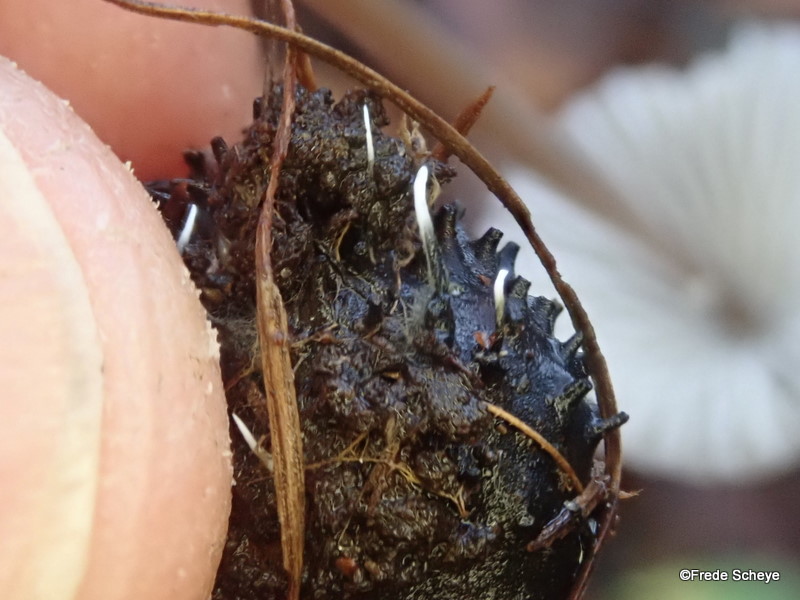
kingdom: Fungi
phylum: Ascomycota
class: Sordariomycetes
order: Xylariales
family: Xylariaceae
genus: Xylaria
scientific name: Xylaria carpophila
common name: bogskål-stødsvamp
